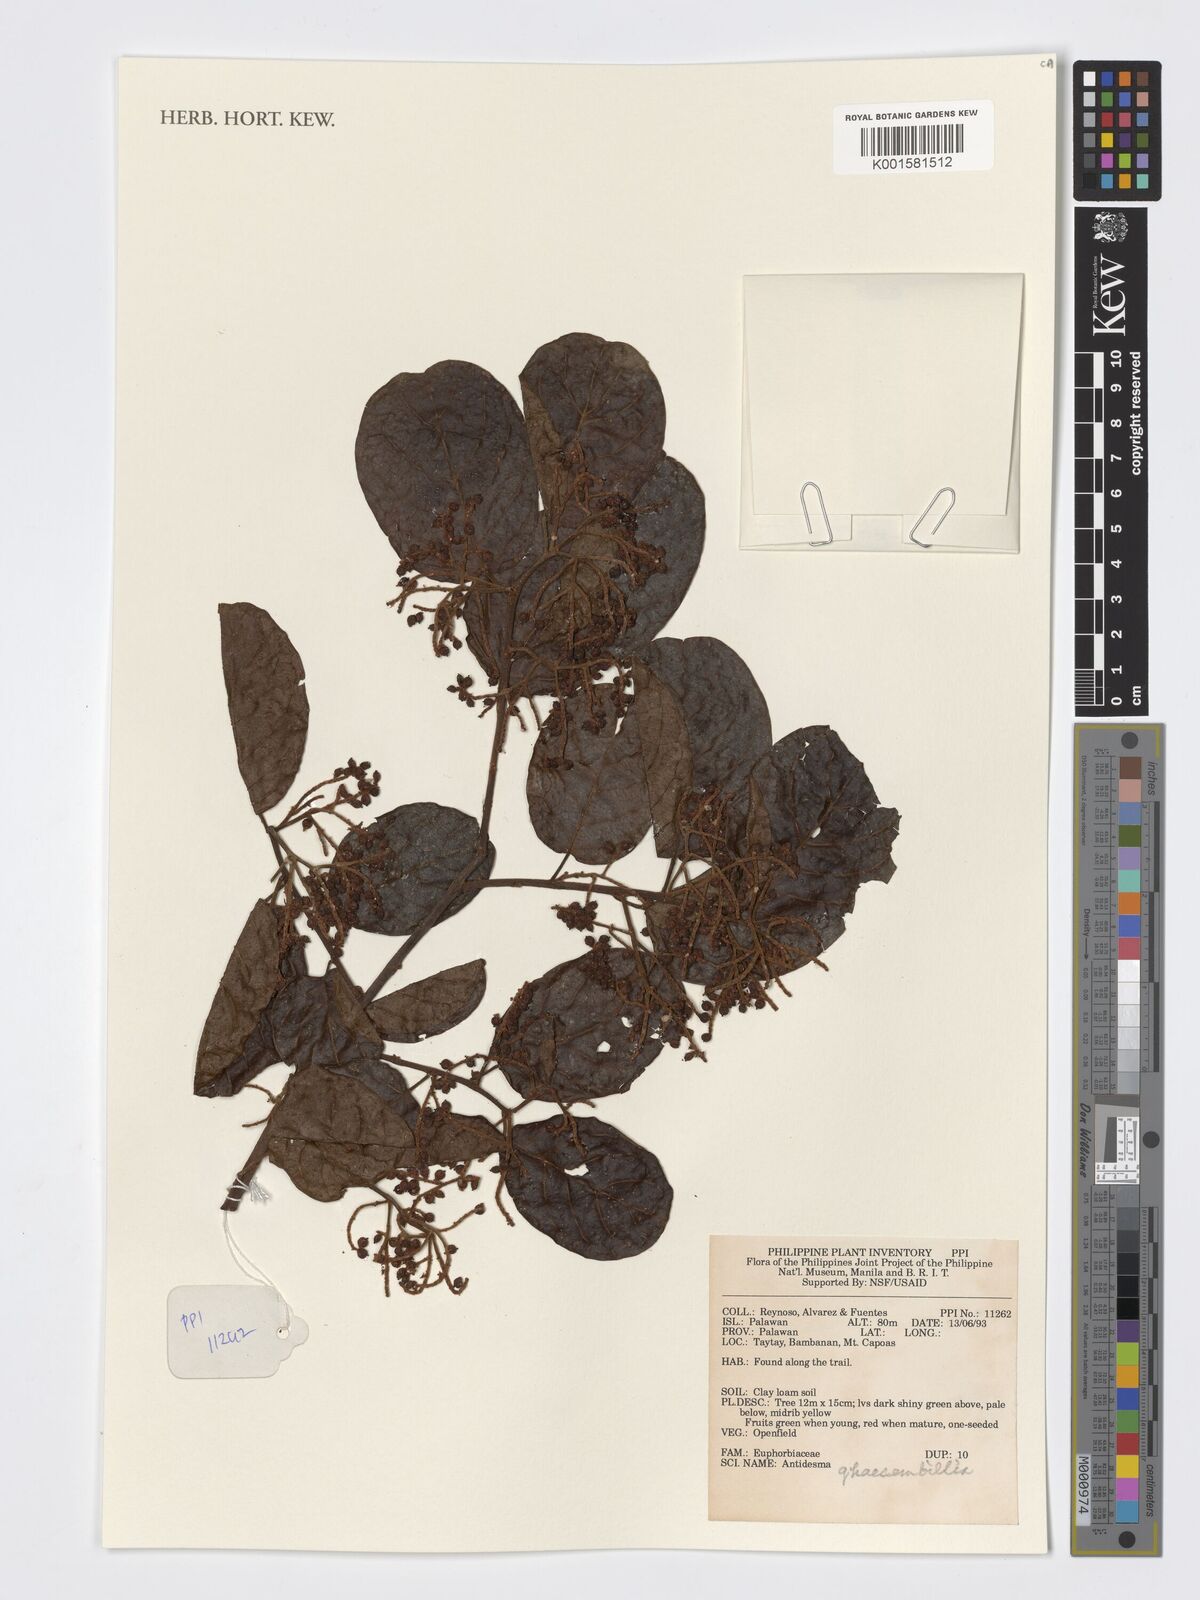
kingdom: Plantae
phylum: Tracheophyta
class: Magnoliopsida
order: Malpighiales
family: Phyllanthaceae
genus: Antidesma
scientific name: Antidesma ghaesembilla
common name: Black currant-tree
